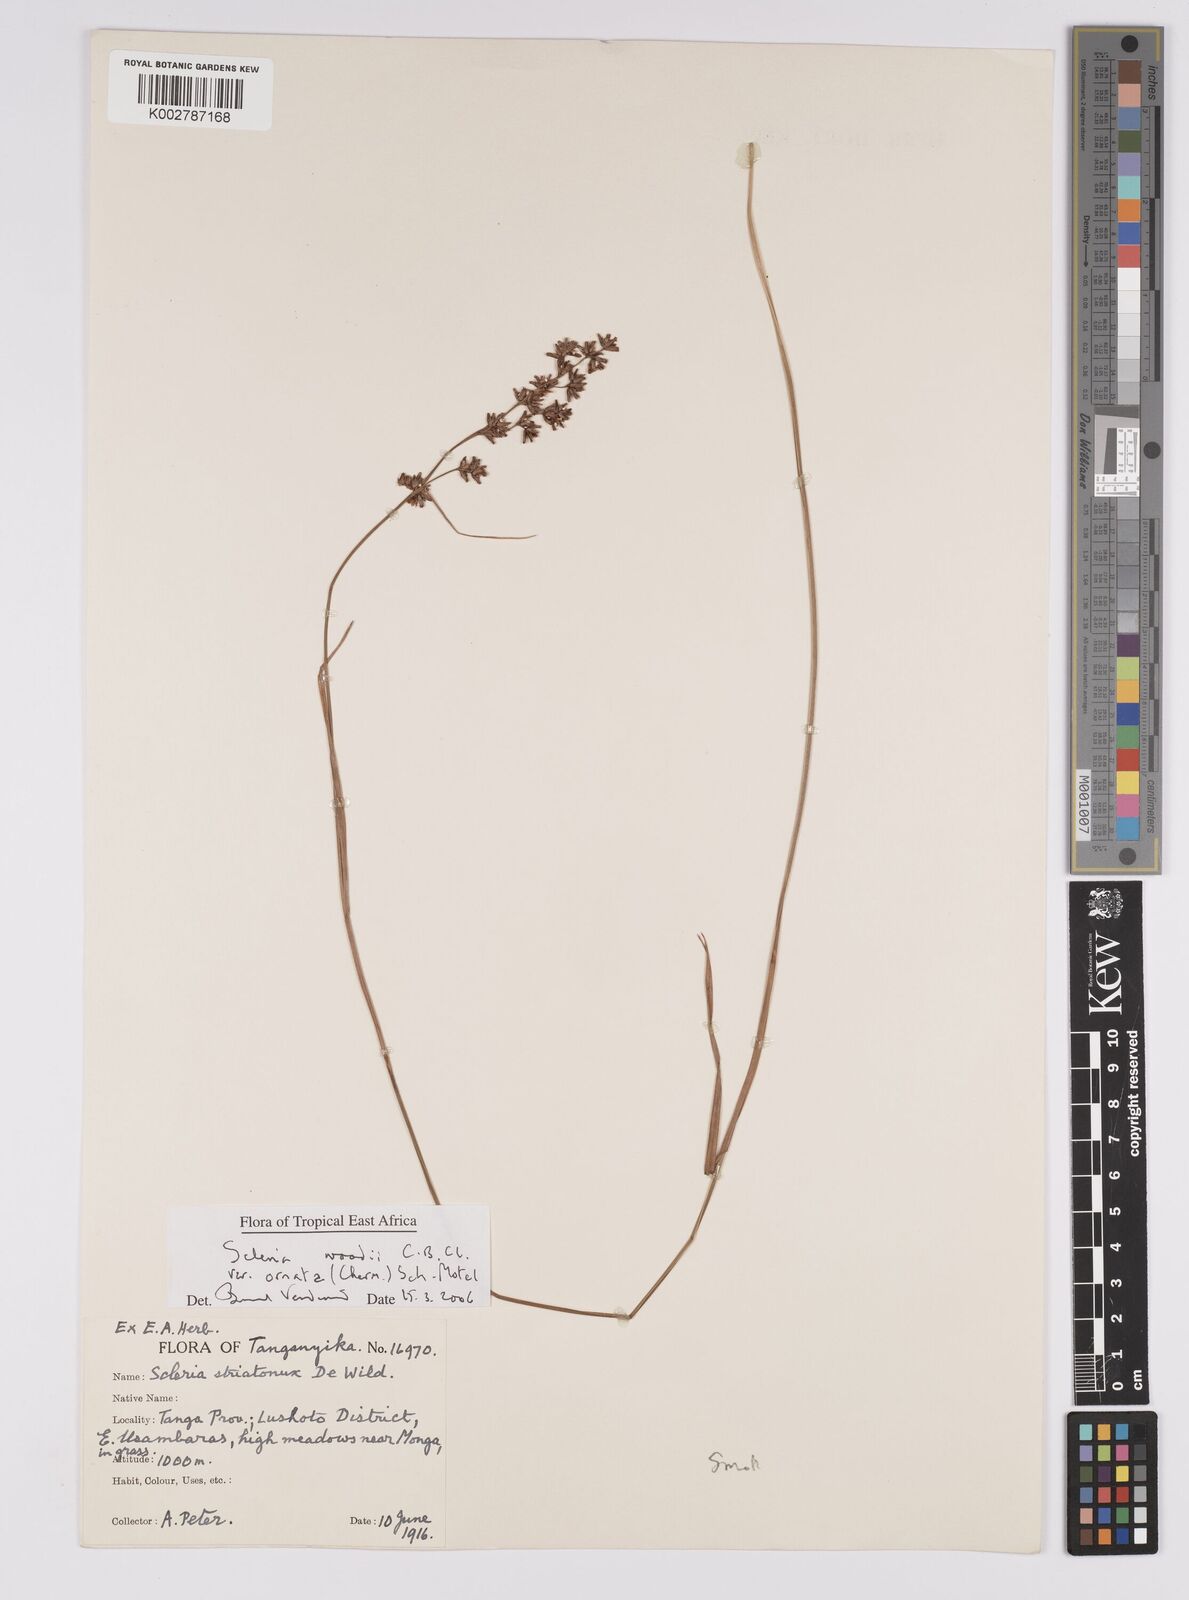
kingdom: Plantae
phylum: Tracheophyta
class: Liliopsida
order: Poales
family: Cyperaceae
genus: Scleria
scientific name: Scleria woodii
